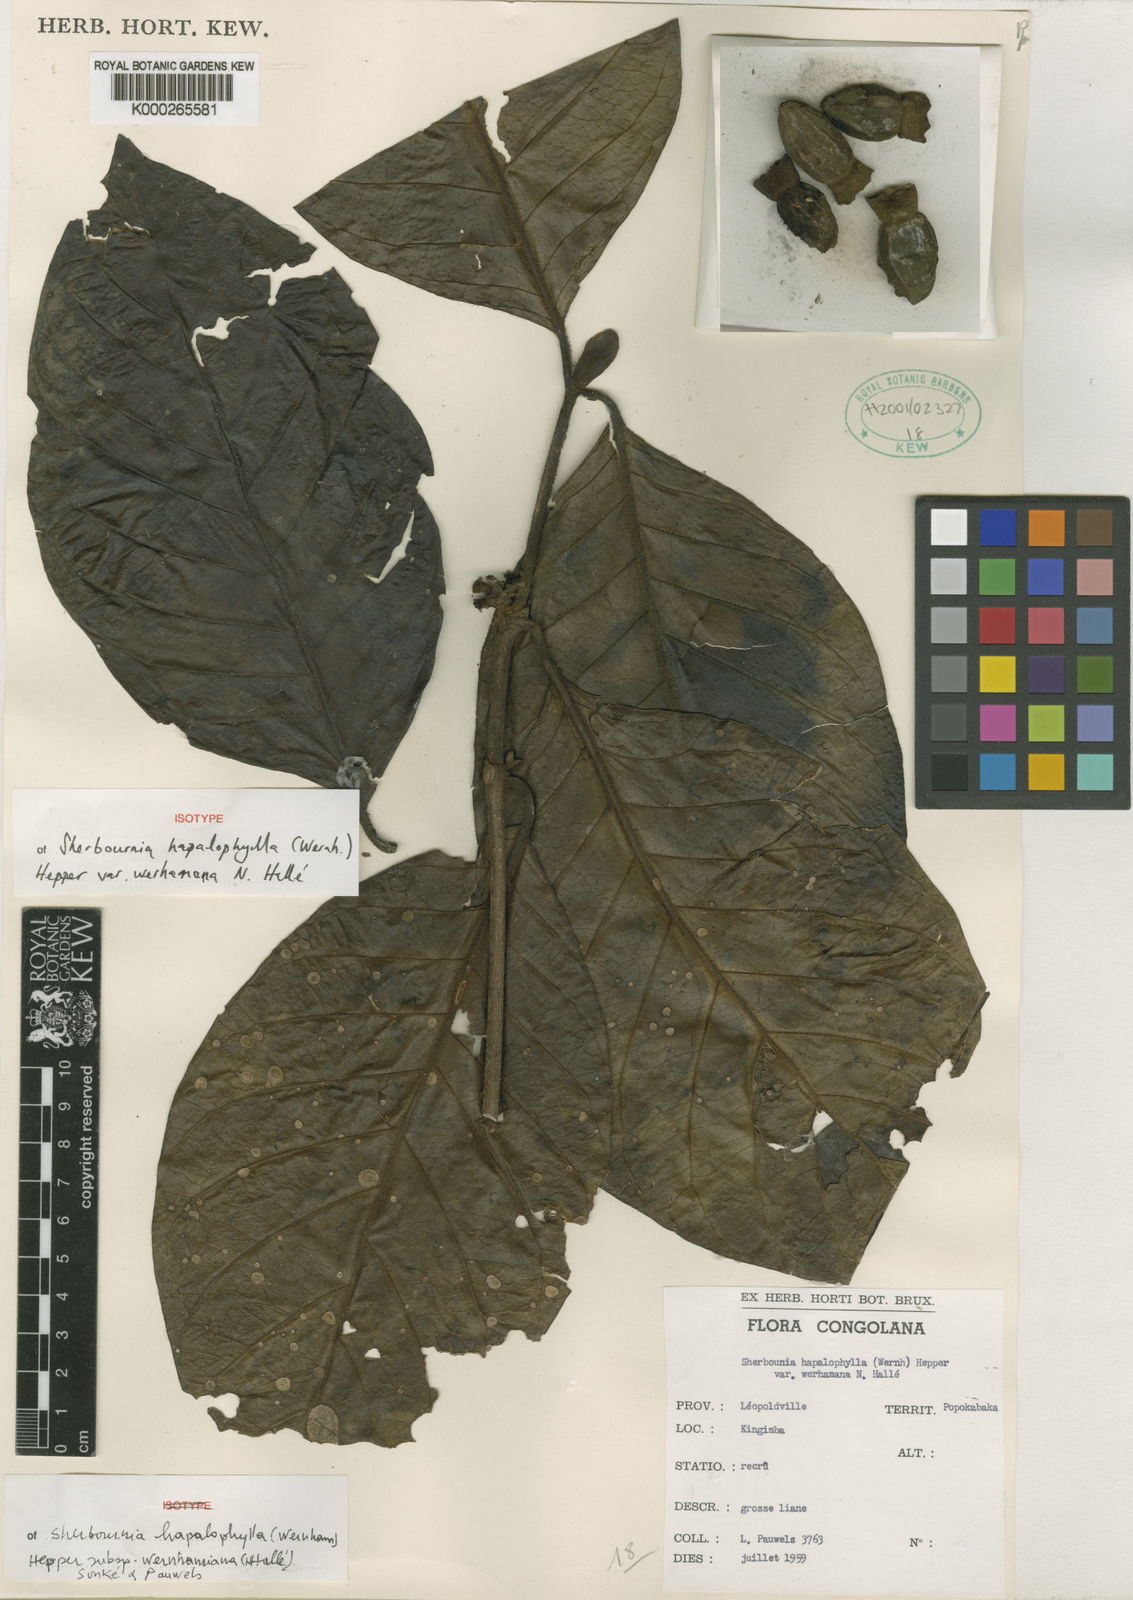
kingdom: Plantae
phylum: Tracheophyta
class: Magnoliopsida
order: Gentianales
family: Rubiaceae
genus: Sherbournia
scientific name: Sherbournia hapalophylla
